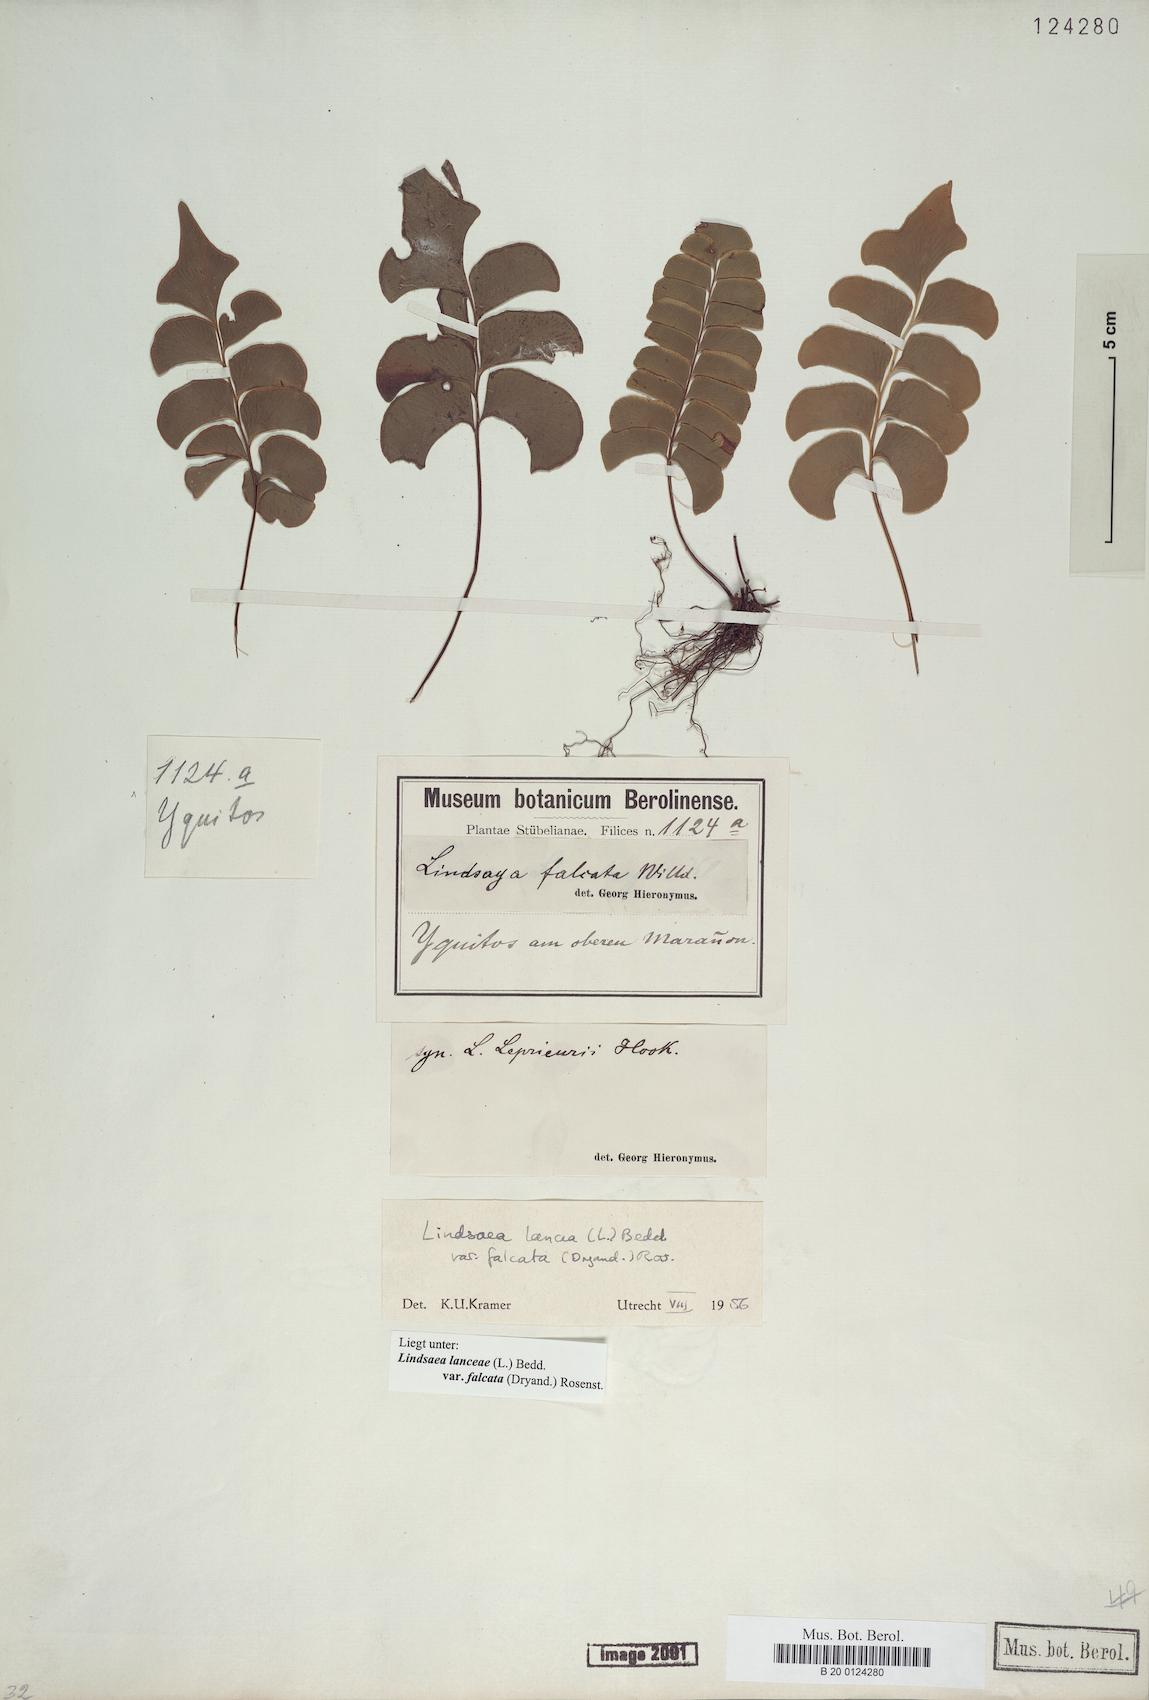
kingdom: Plantae
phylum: Tracheophyta
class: Polypodiopsida
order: Polypodiales
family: Lindsaeaceae
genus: Lindsaea
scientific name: Lindsaea falcata
